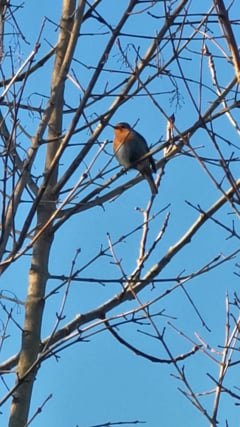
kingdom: Animalia
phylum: Chordata
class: Aves
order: Passeriformes
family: Muscicapidae
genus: Erithacus
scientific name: Erithacus rubecula
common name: European robin
